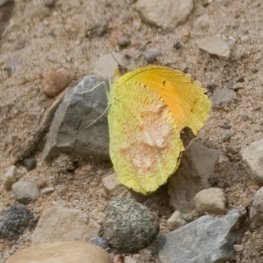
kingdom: Animalia
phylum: Arthropoda
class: Insecta
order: Lepidoptera
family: Pieridae
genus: Abaeis
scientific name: Abaeis nicippe
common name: Sleepy Orange
